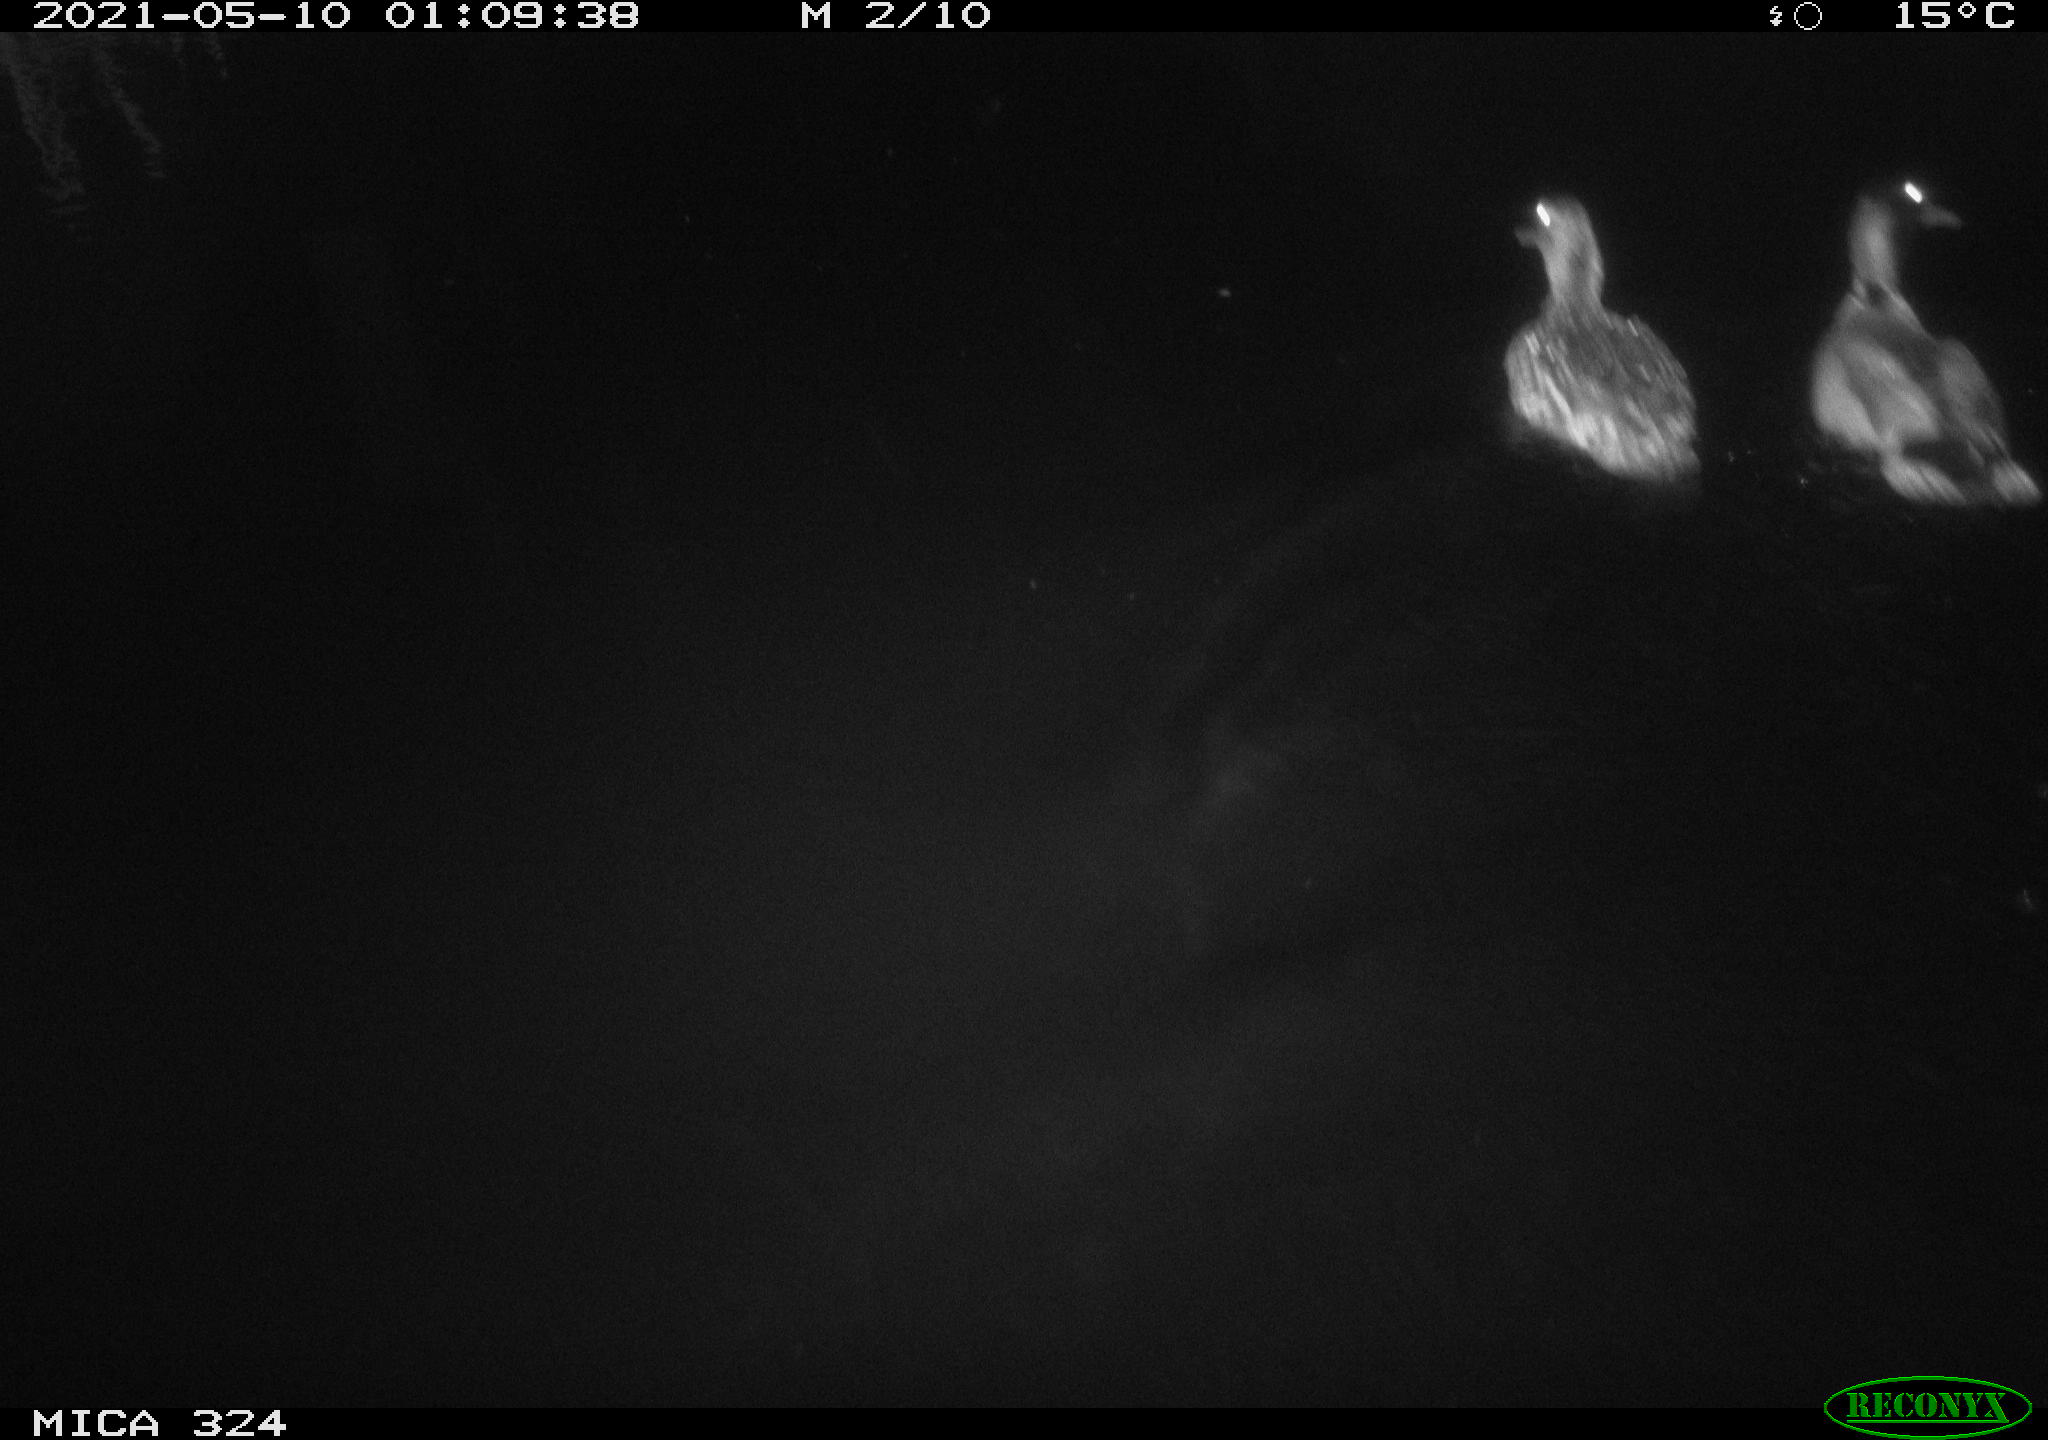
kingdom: Animalia
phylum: Chordata
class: Aves
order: Anseriformes
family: Anatidae
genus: Anas
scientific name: Anas platyrhynchos
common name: Mallard
